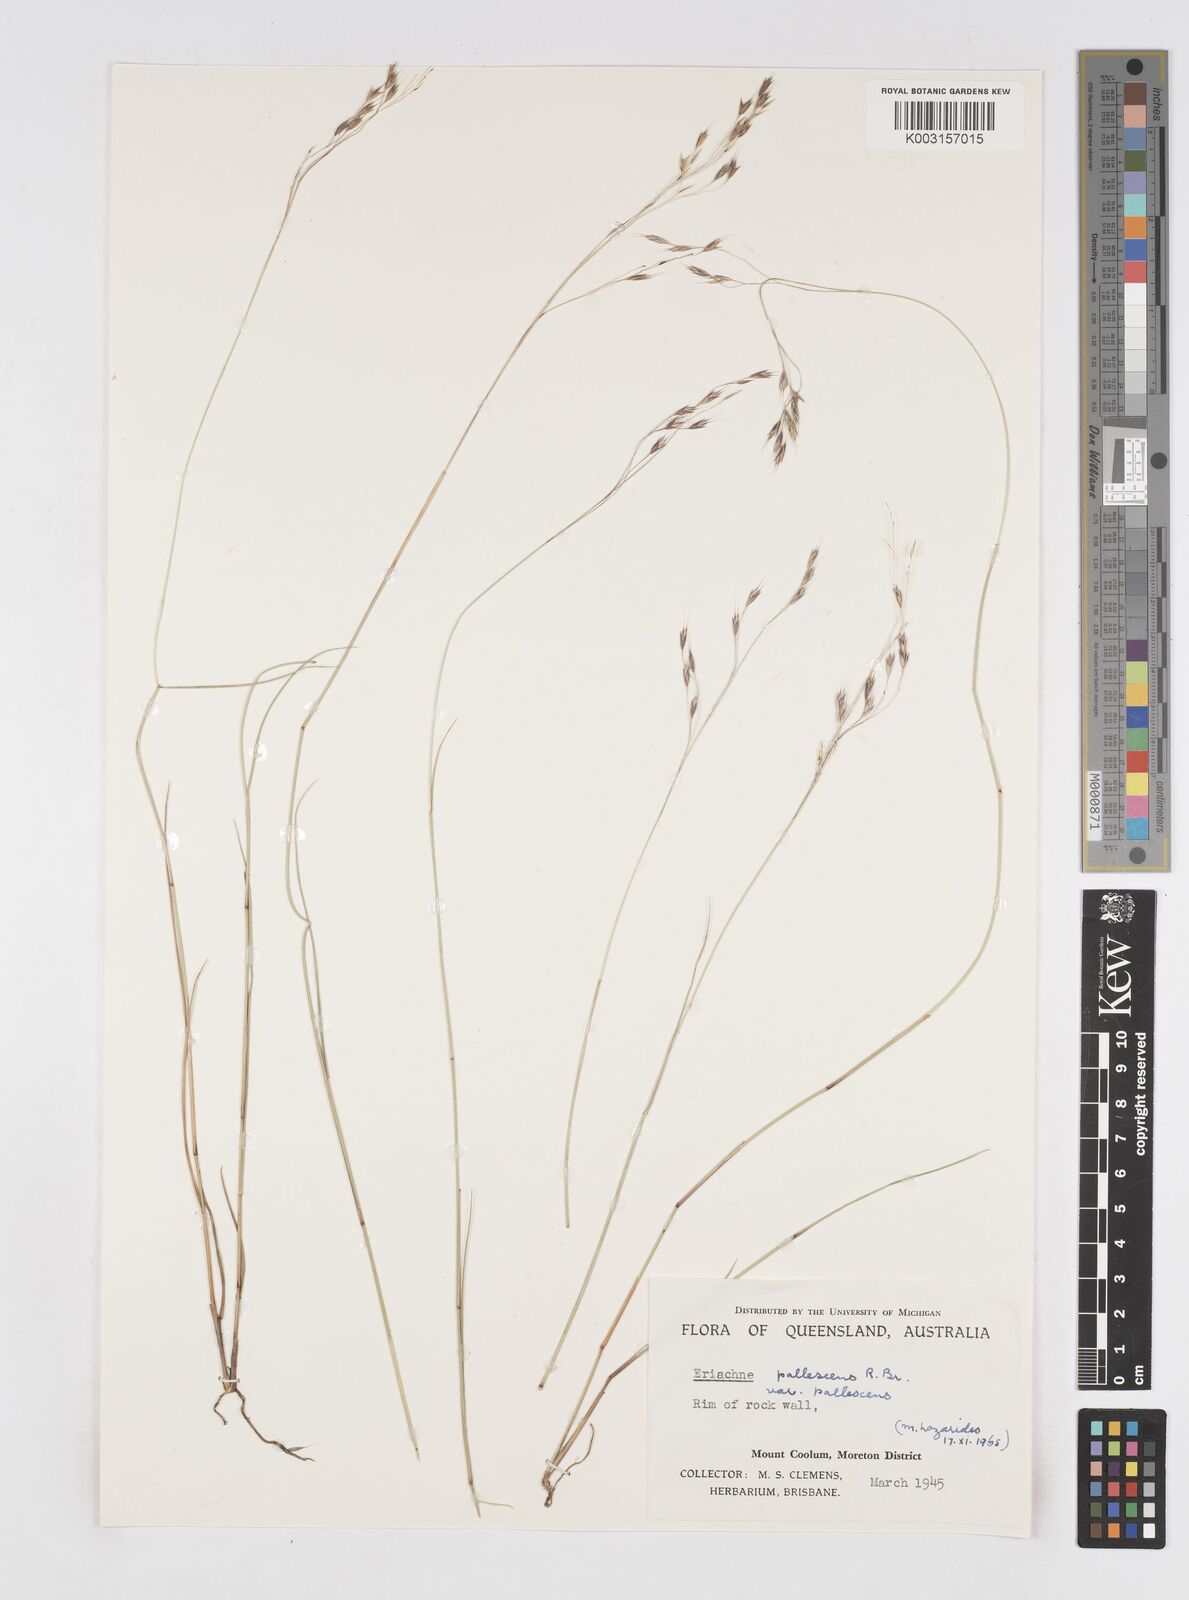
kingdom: Plantae
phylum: Tracheophyta
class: Liliopsida
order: Poales
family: Poaceae
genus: Eriachne
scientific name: Eriachne pallescens
